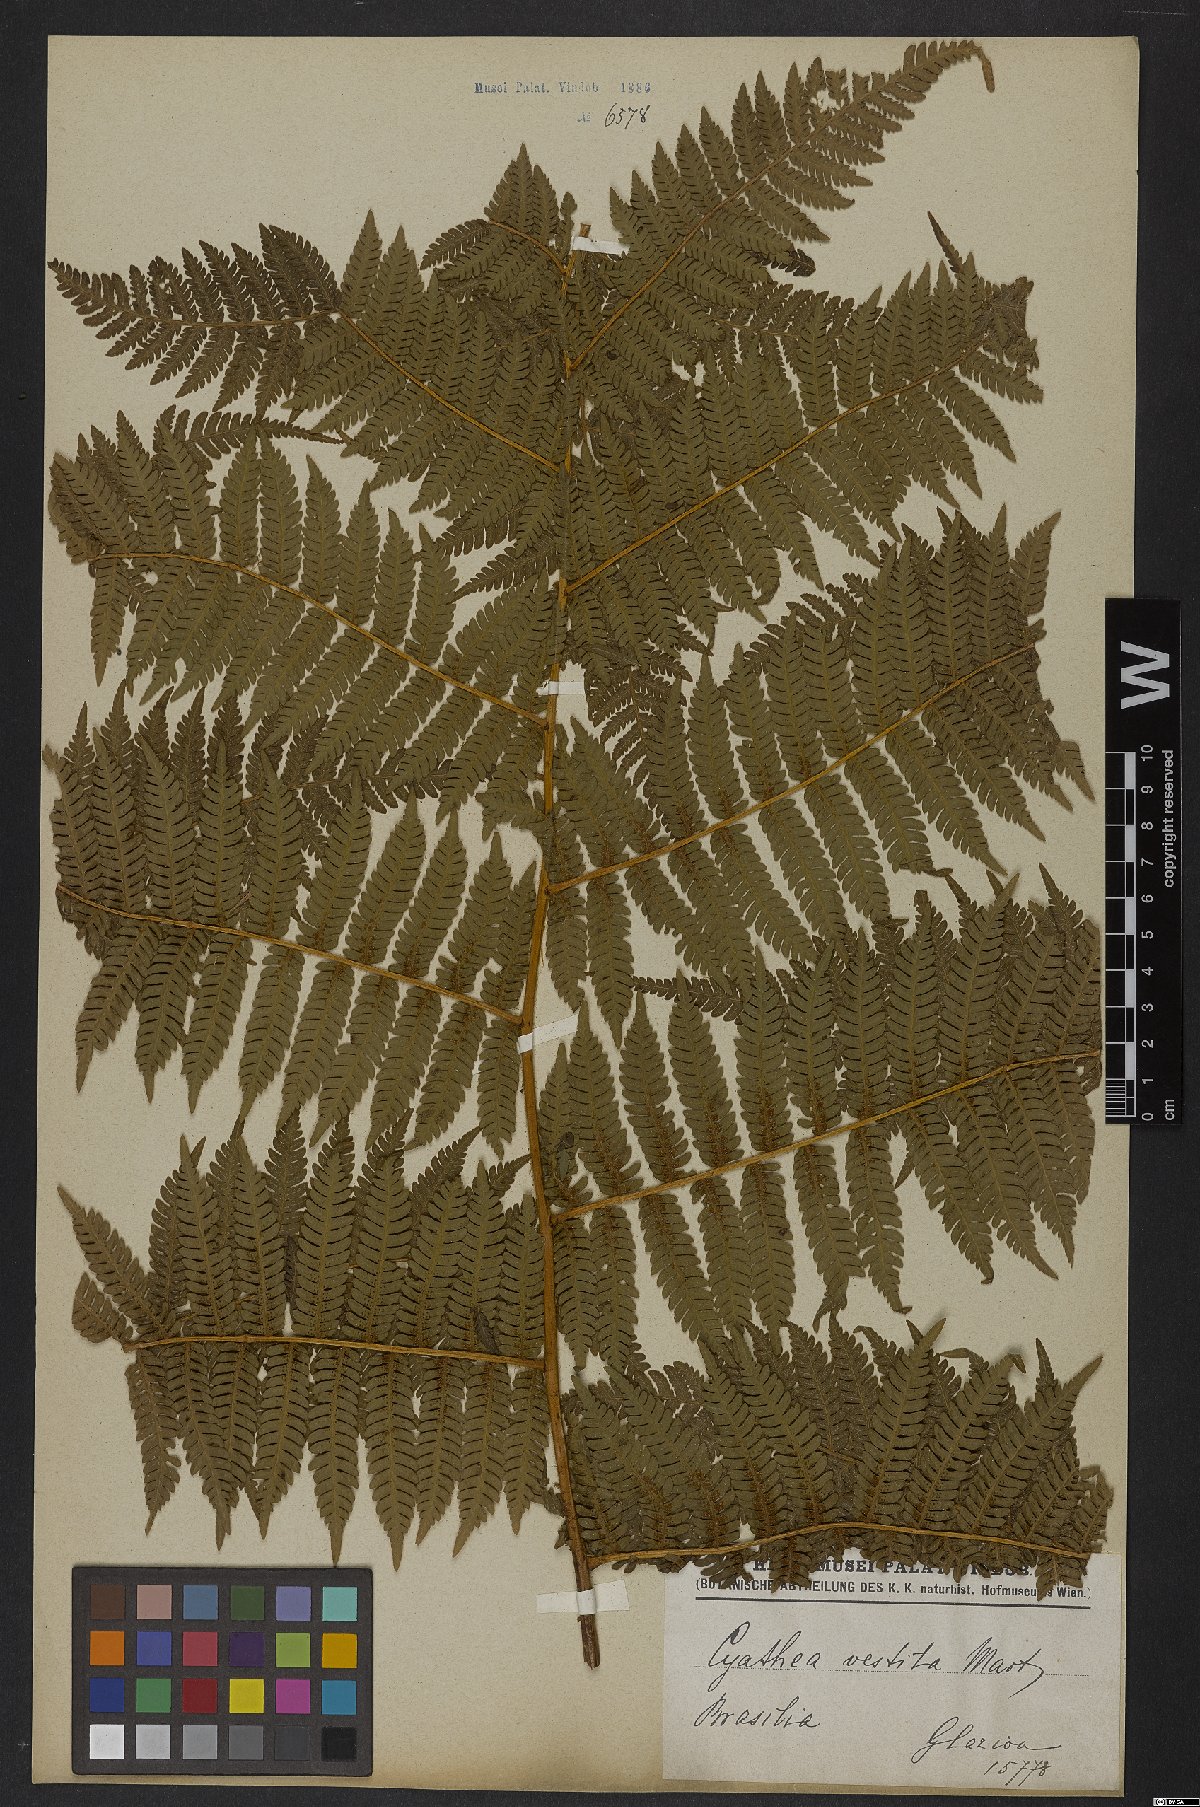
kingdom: Plantae
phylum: Tracheophyta
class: Polypodiopsida
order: Cyatheales
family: Cyatheaceae
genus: Cyathea
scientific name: Cyathea delgadii
